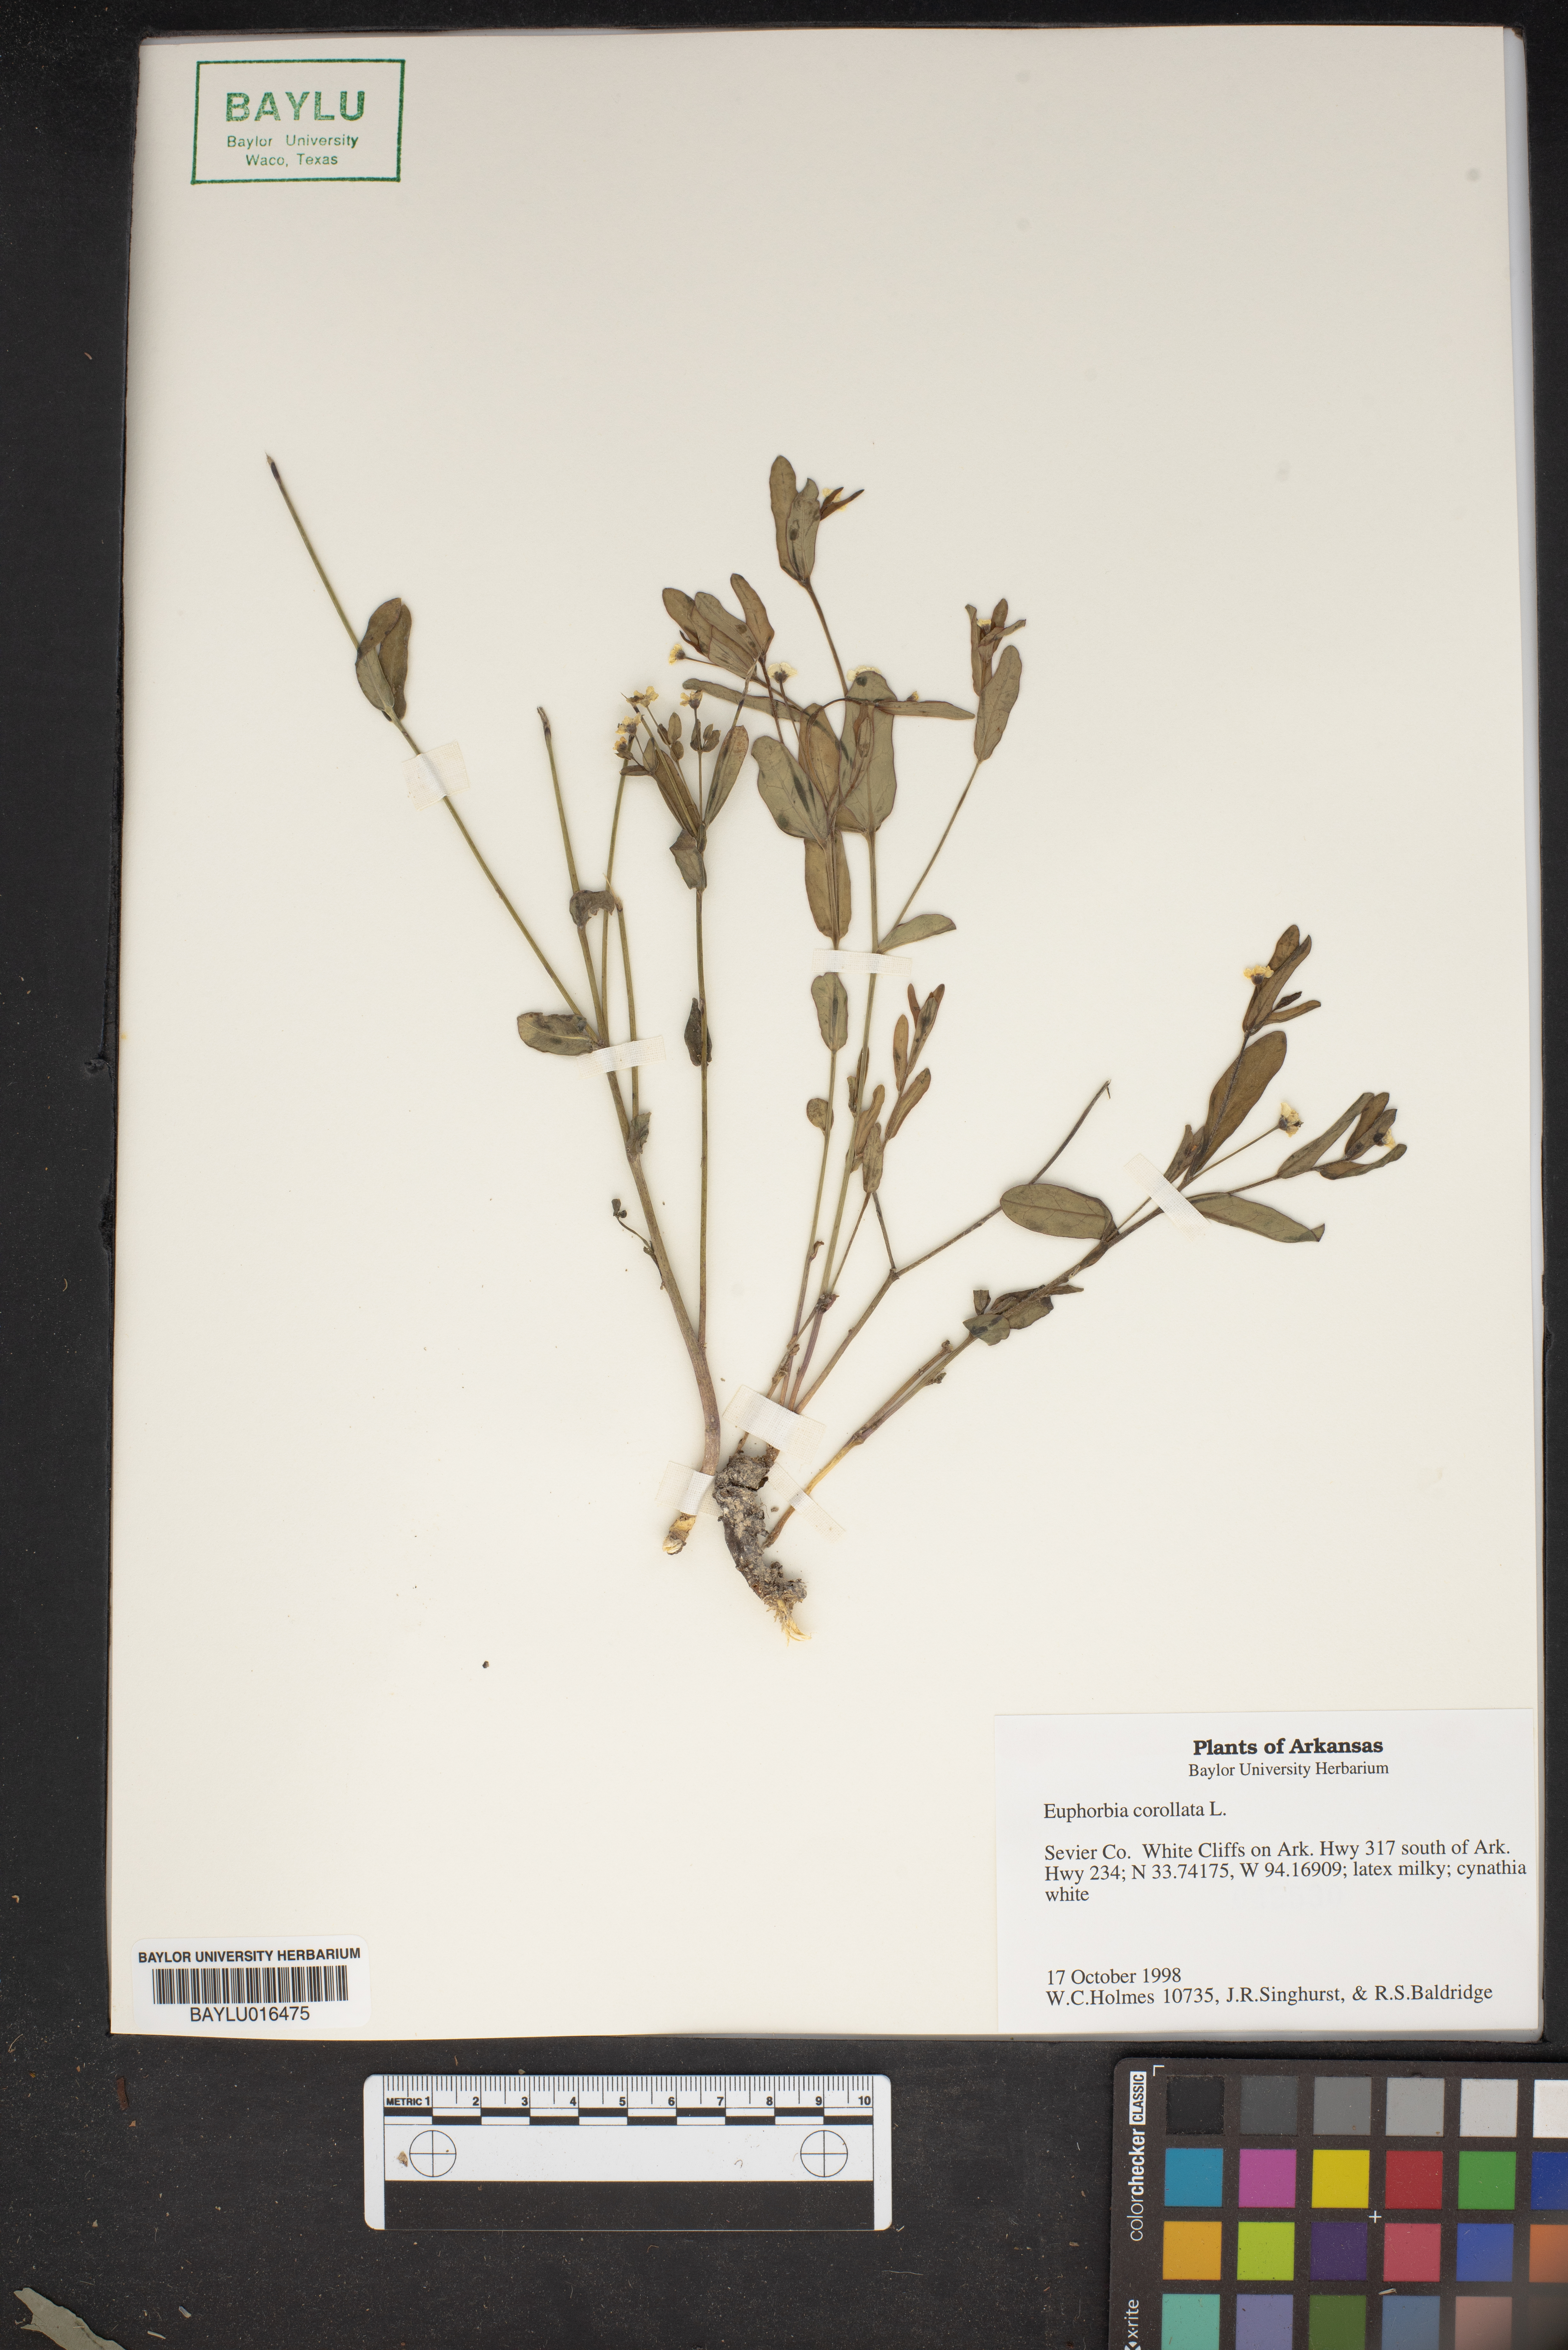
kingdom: Plantae
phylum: Tracheophyta
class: Magnoliopsida
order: Malpighiales
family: Euphorbiaceae
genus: Euphorbia
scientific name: Euphorbia corollata
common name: Flowering spurge
